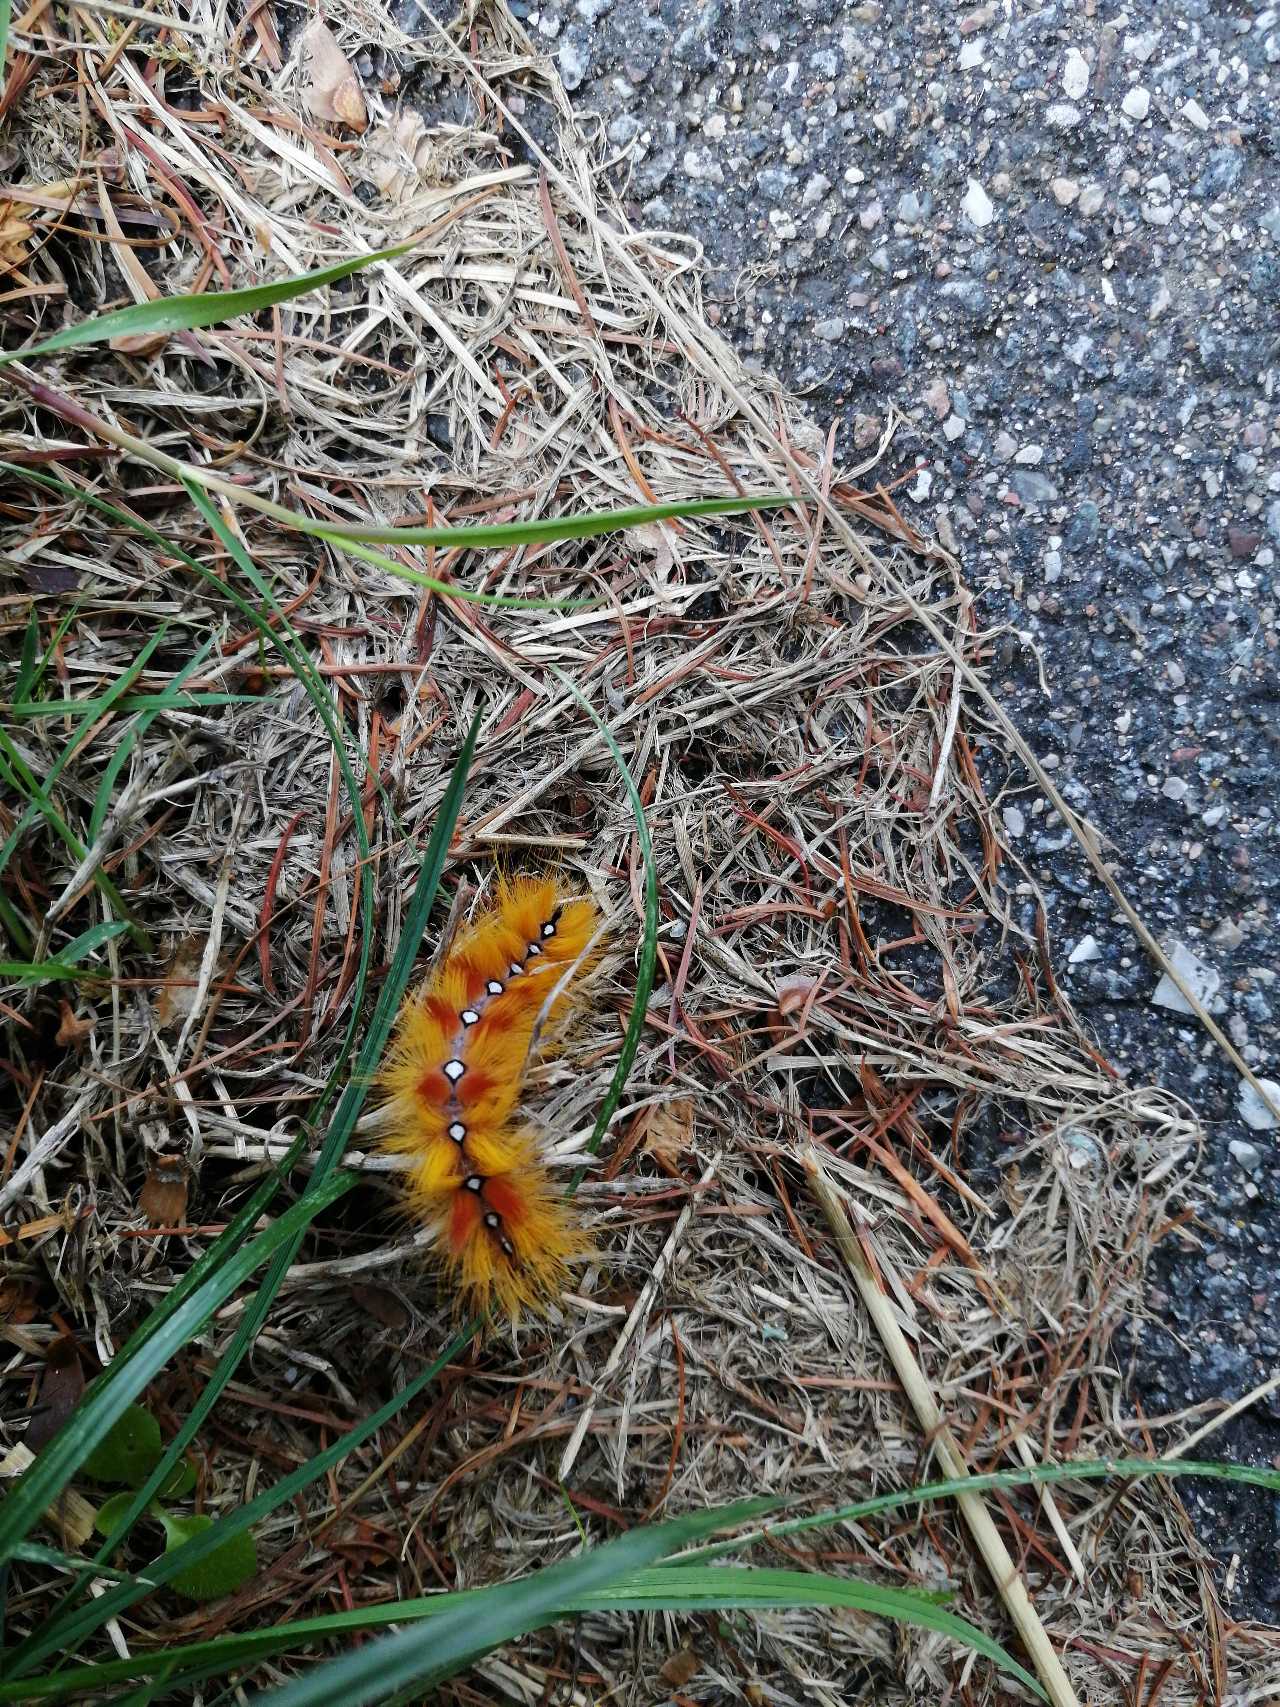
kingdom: Animalia
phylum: Arthropoda
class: Insecta
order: Lepidoptera
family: Noctuidae
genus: Acronicta
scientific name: Acronicta aceris
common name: Ahornugle
